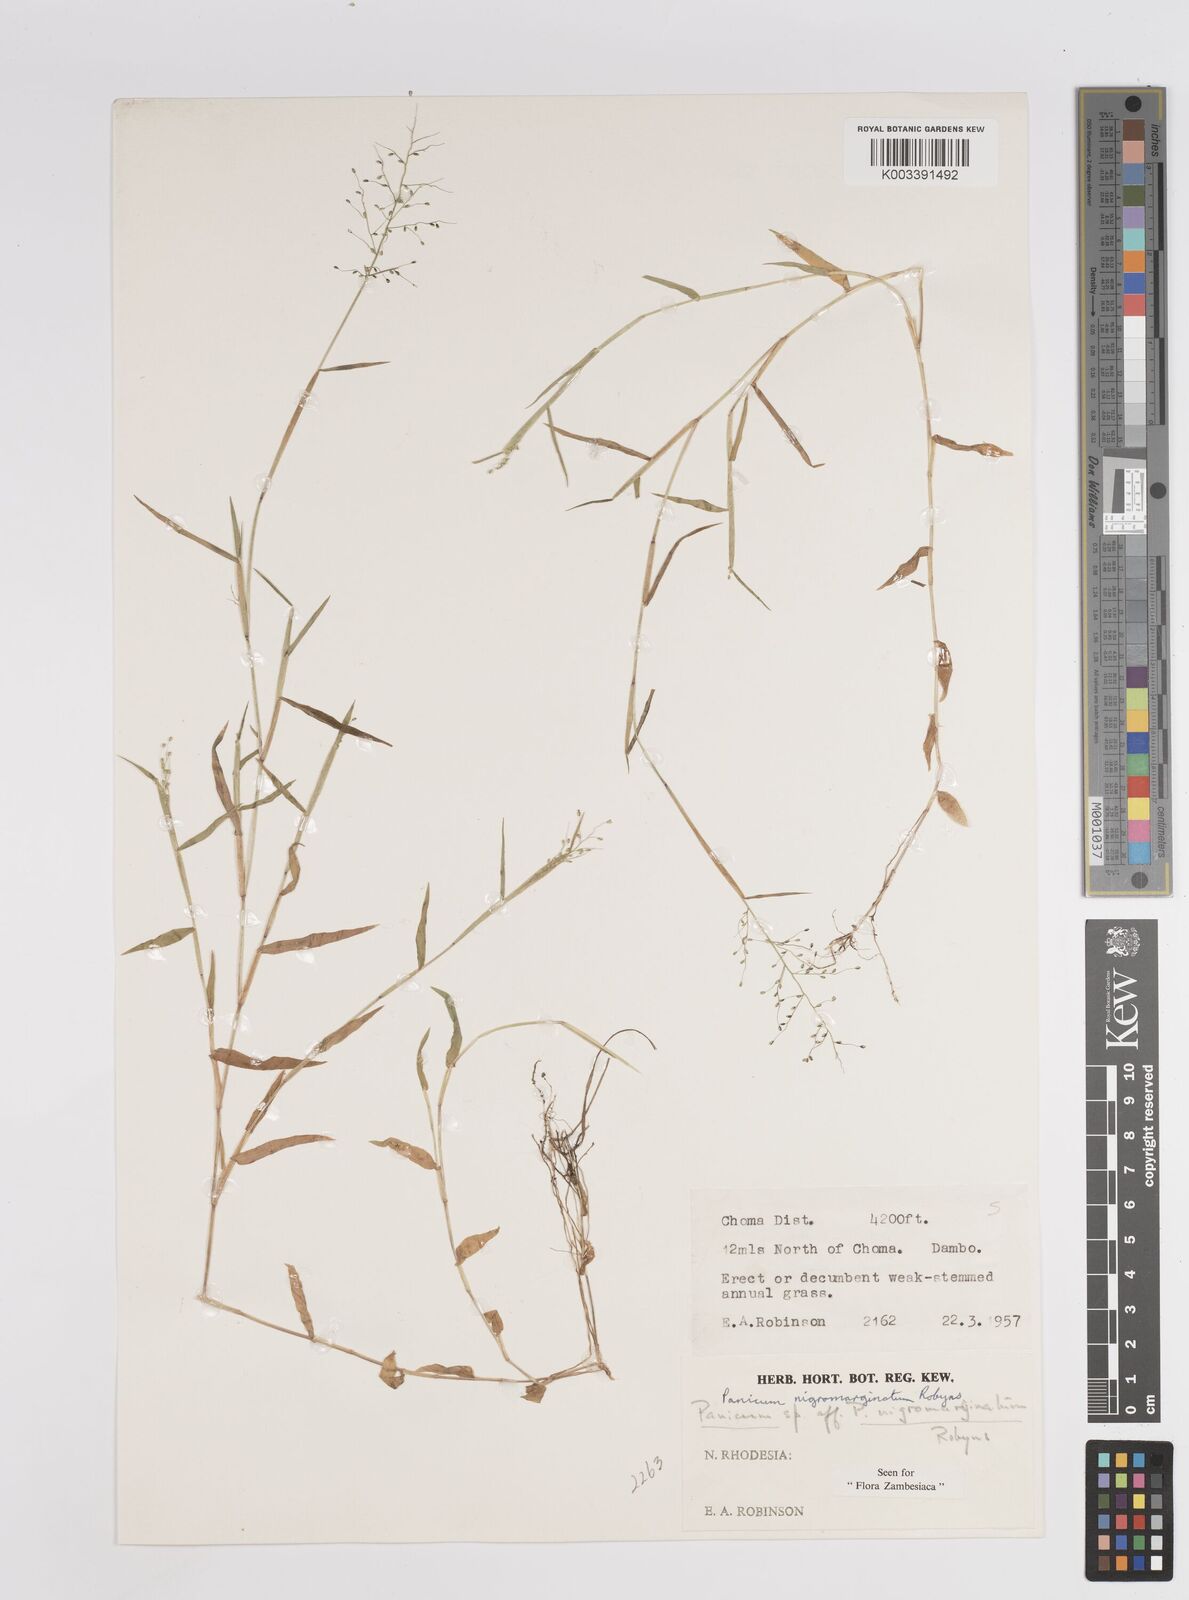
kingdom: Plantae
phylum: Tracheophyta
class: Liliopsida
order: Poales
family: Poaceae
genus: Adenochloa
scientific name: Adenochloa nigromarginata
